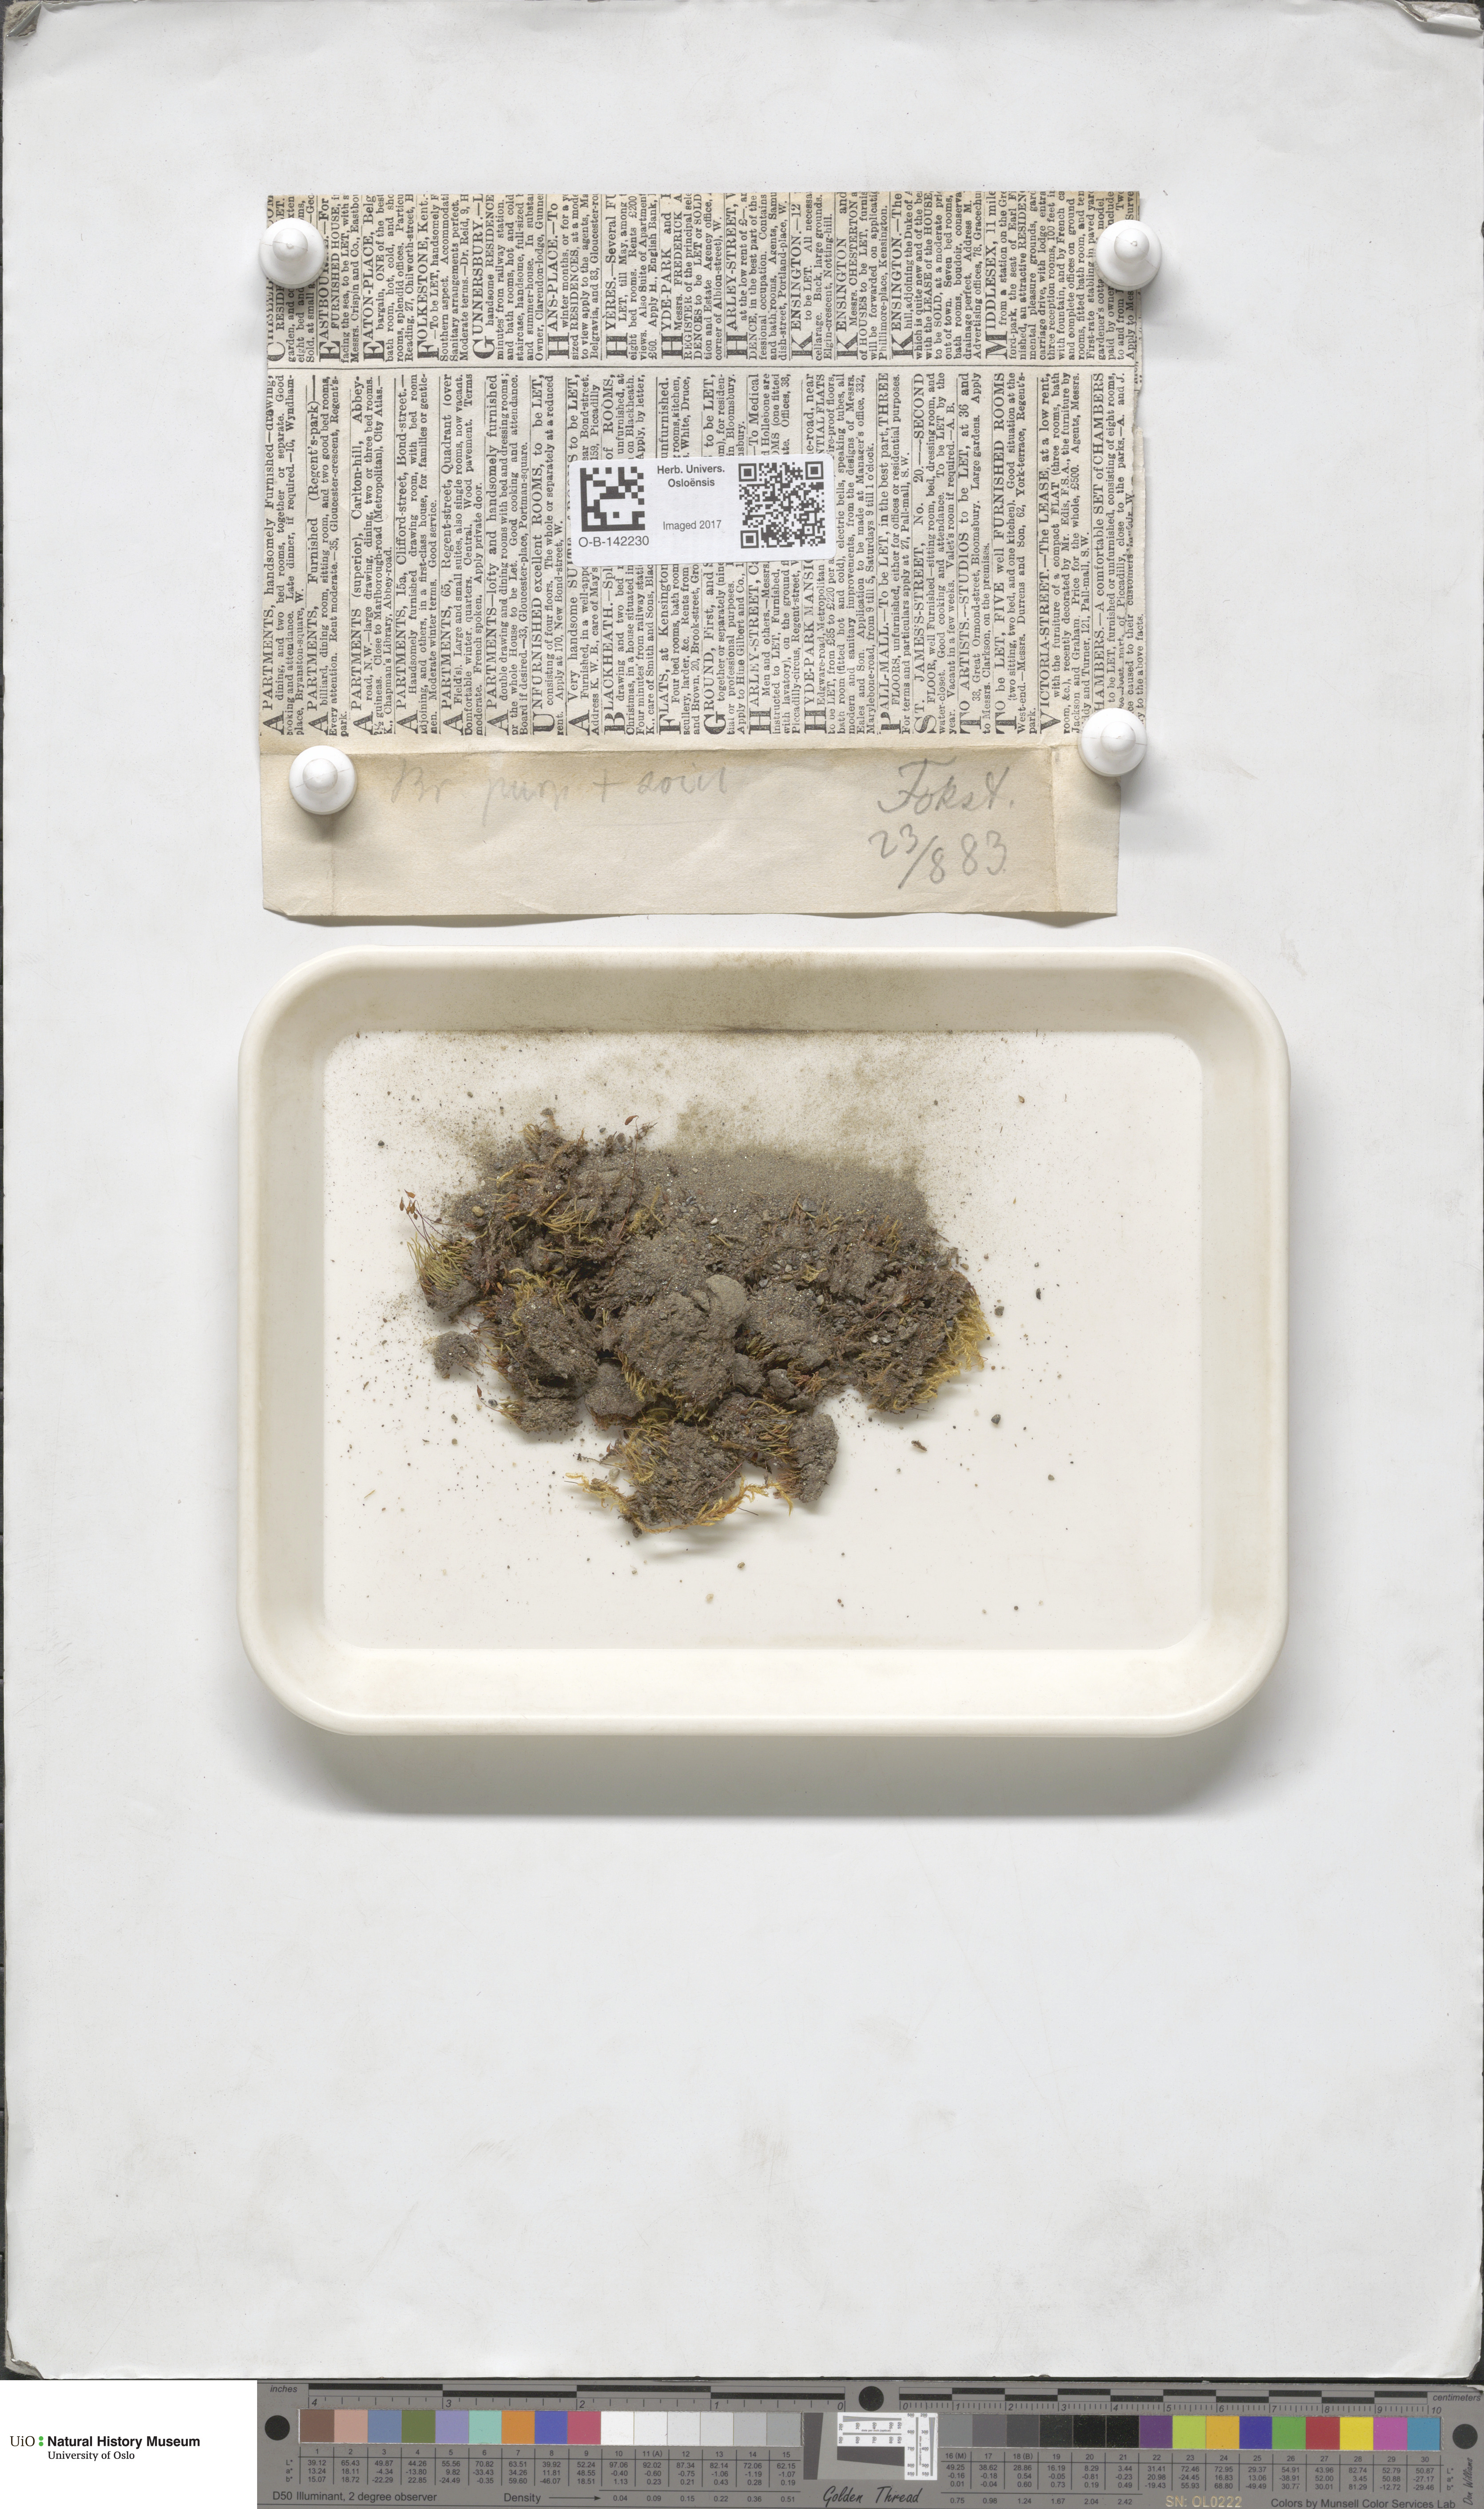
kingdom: Plantae
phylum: Bryophyta
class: Bryopsida
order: Bryales
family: Bryaceae
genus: Ptychostomum
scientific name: Ptychostomum arcticum
